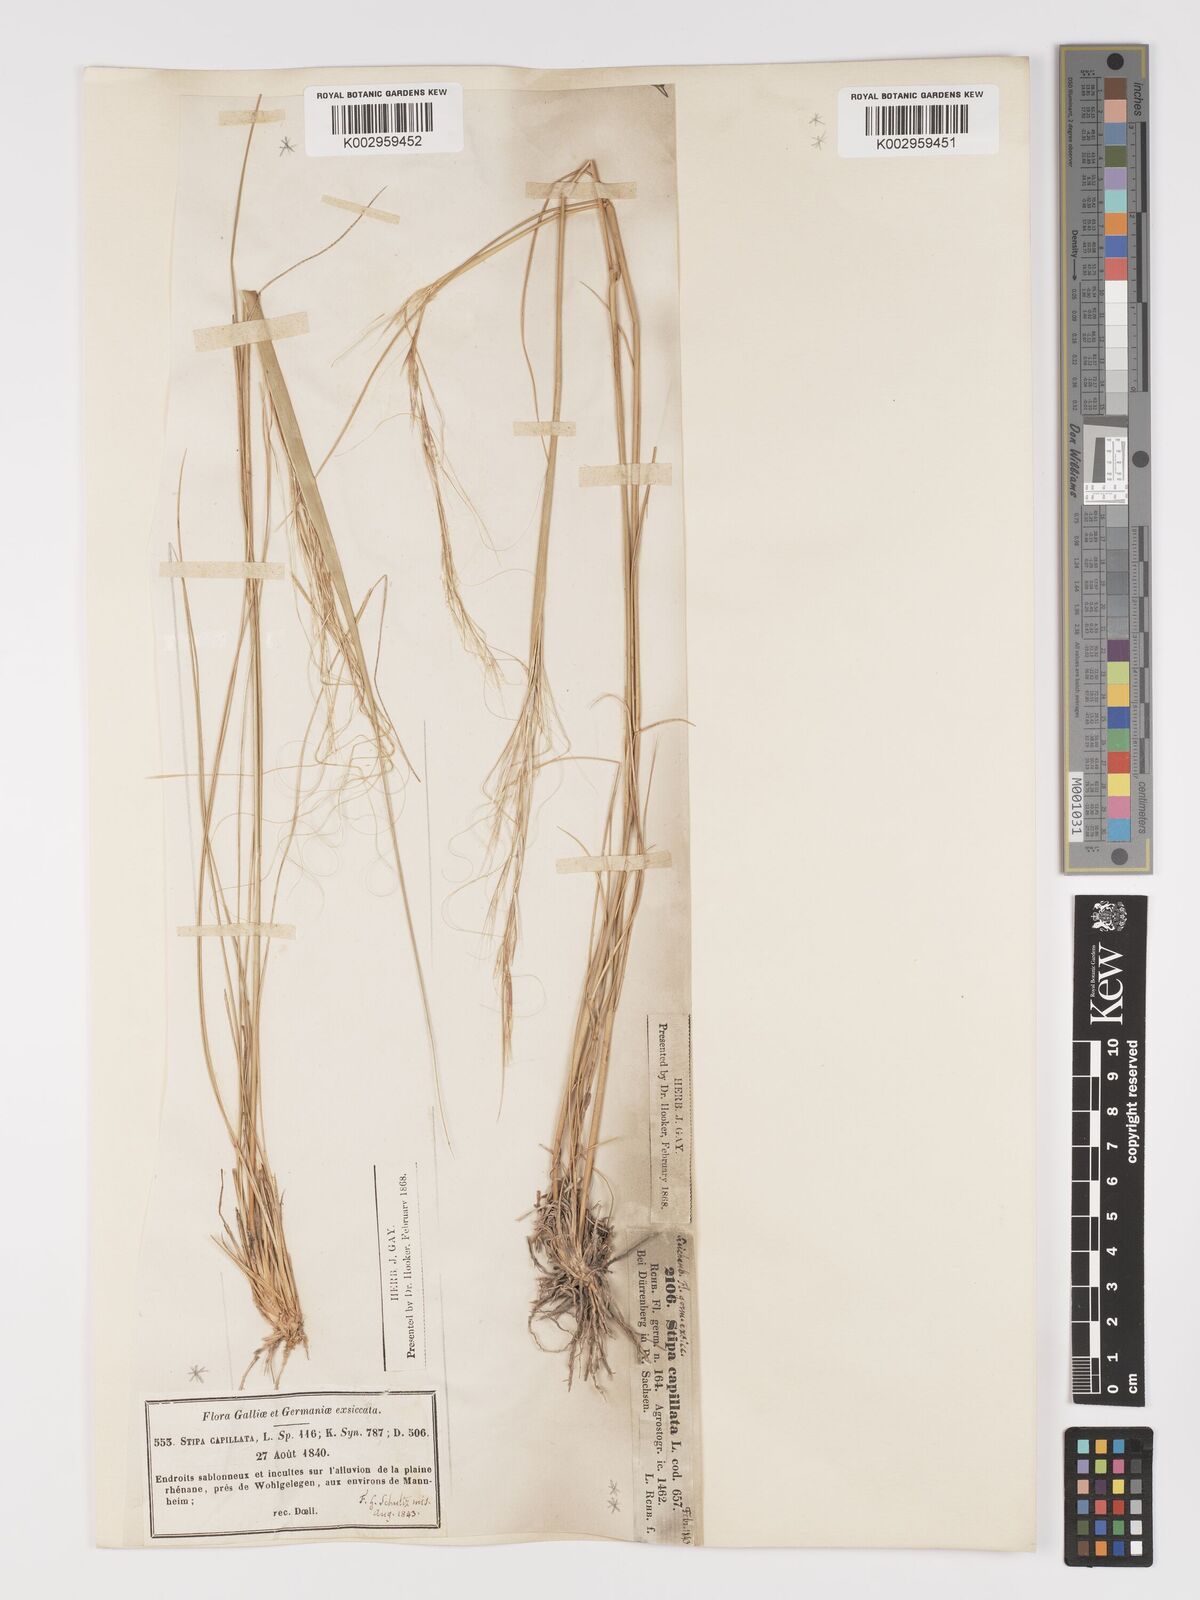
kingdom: Plantae
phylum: Tracheophyta
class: Liliopsida
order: Poales
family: Poaceae
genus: Stipa
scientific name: Stipa capillata
